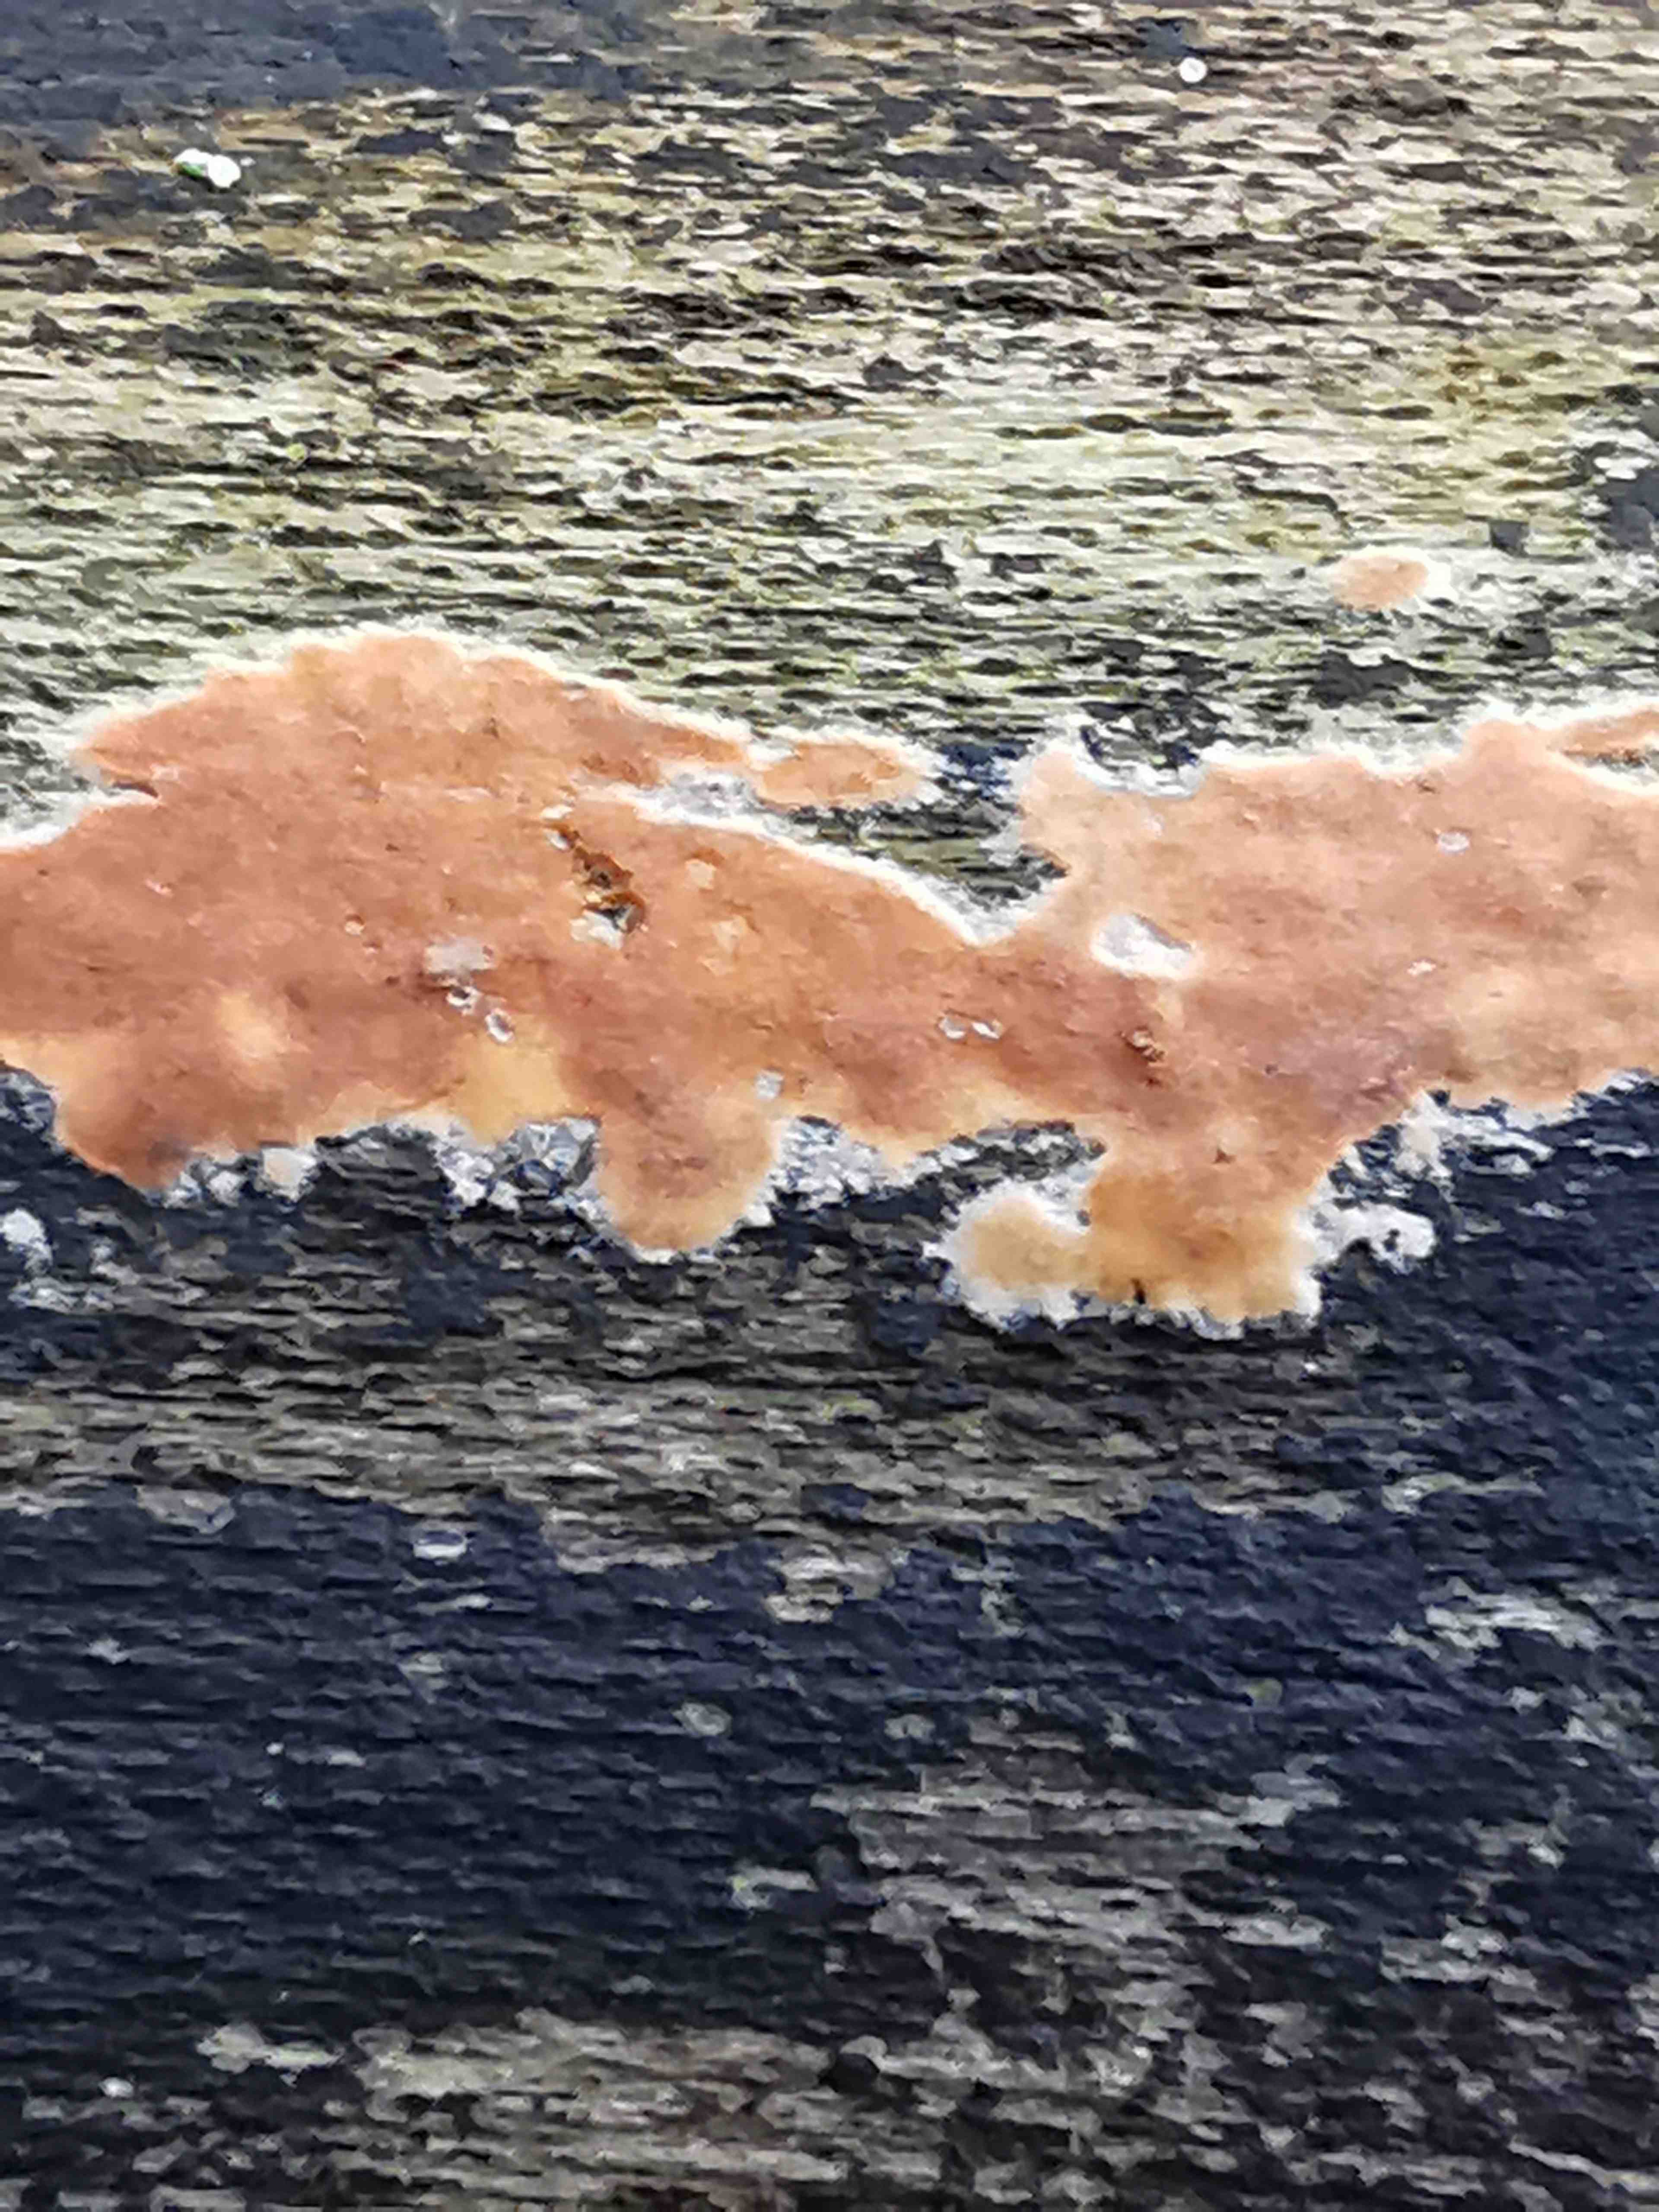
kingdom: Fungi
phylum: Basidiomycota
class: Agaricomycetes
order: Russulales
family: Peniophoraceae
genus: Peniophora
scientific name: Peniophora incarnata
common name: laksefarvet voksskind
